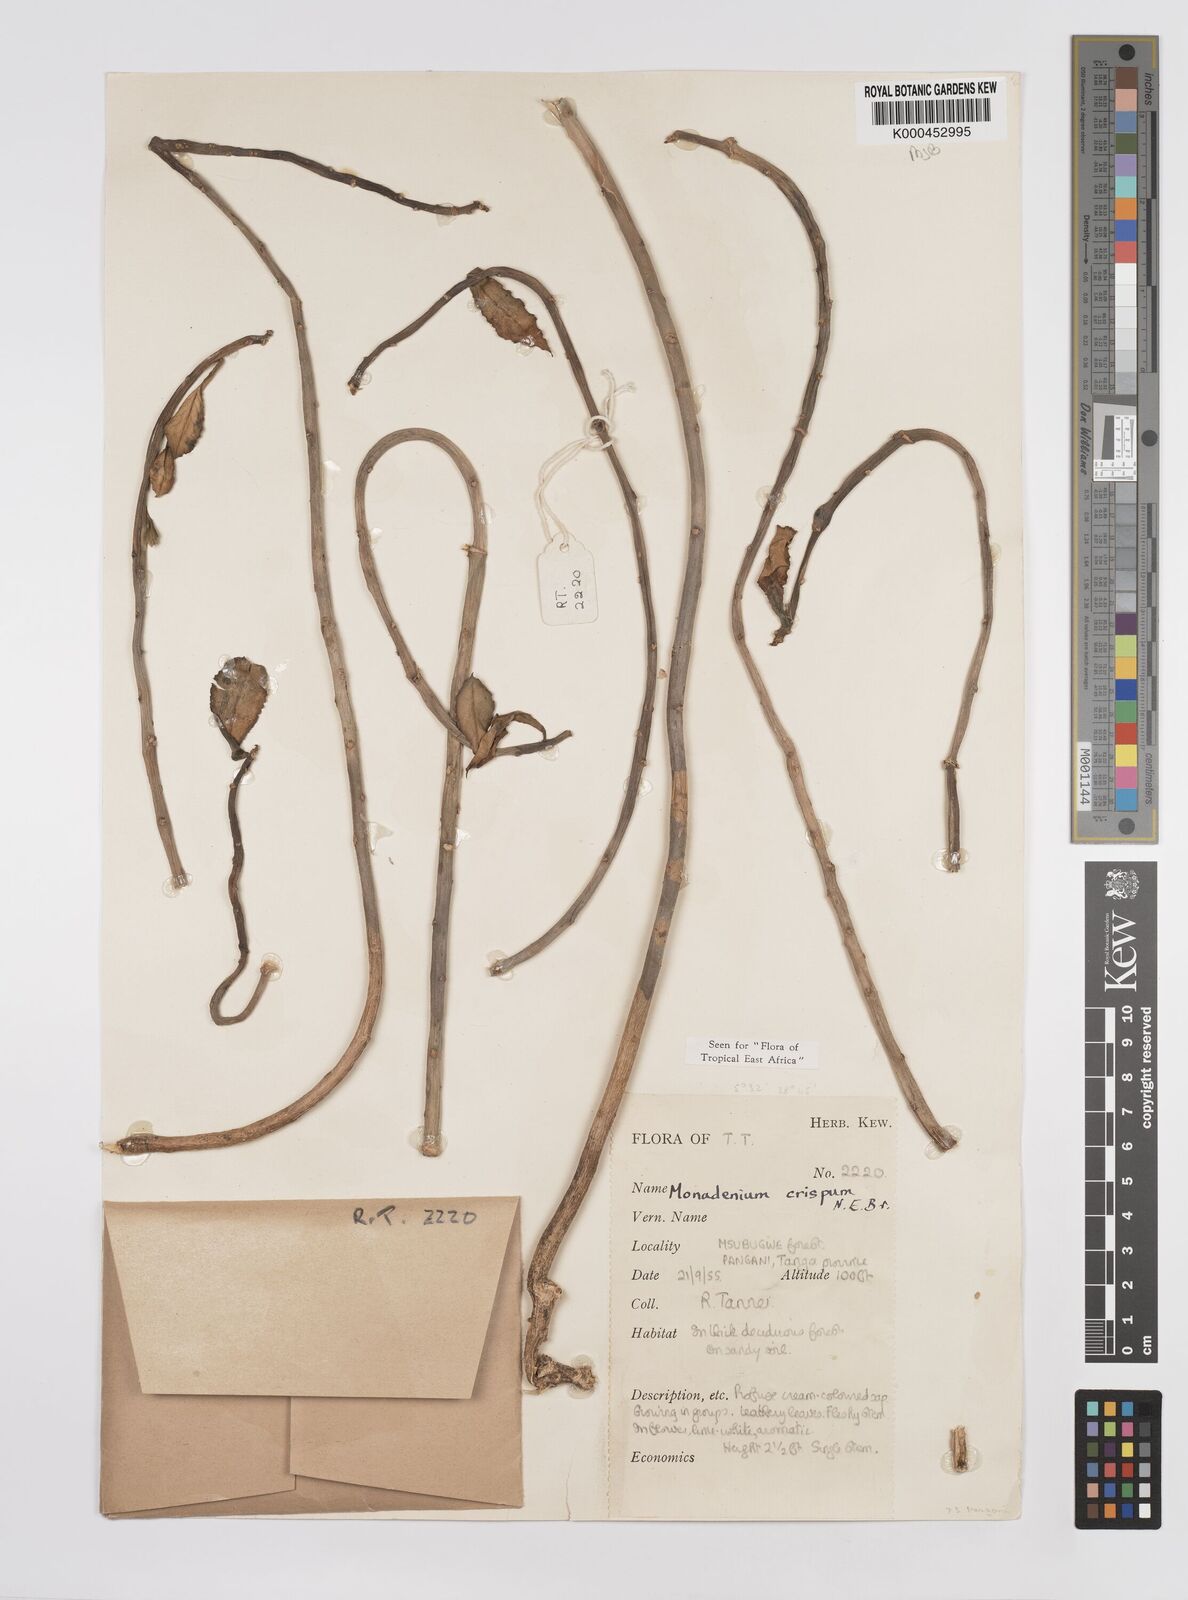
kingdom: Plantae
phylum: Tracheophyta
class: Magnoliopsida
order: Malpighiales
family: Euphorbiaceae
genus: Euphorbia
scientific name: Euphorbia neocrispa
